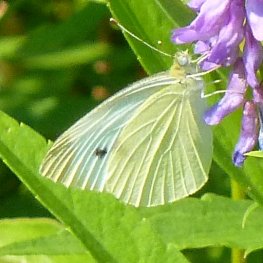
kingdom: Animalia
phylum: Arthropoda
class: Insecta
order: Lepidoptera
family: Pieridae
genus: Pieris
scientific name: Pieris rapae
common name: Cabbage White
